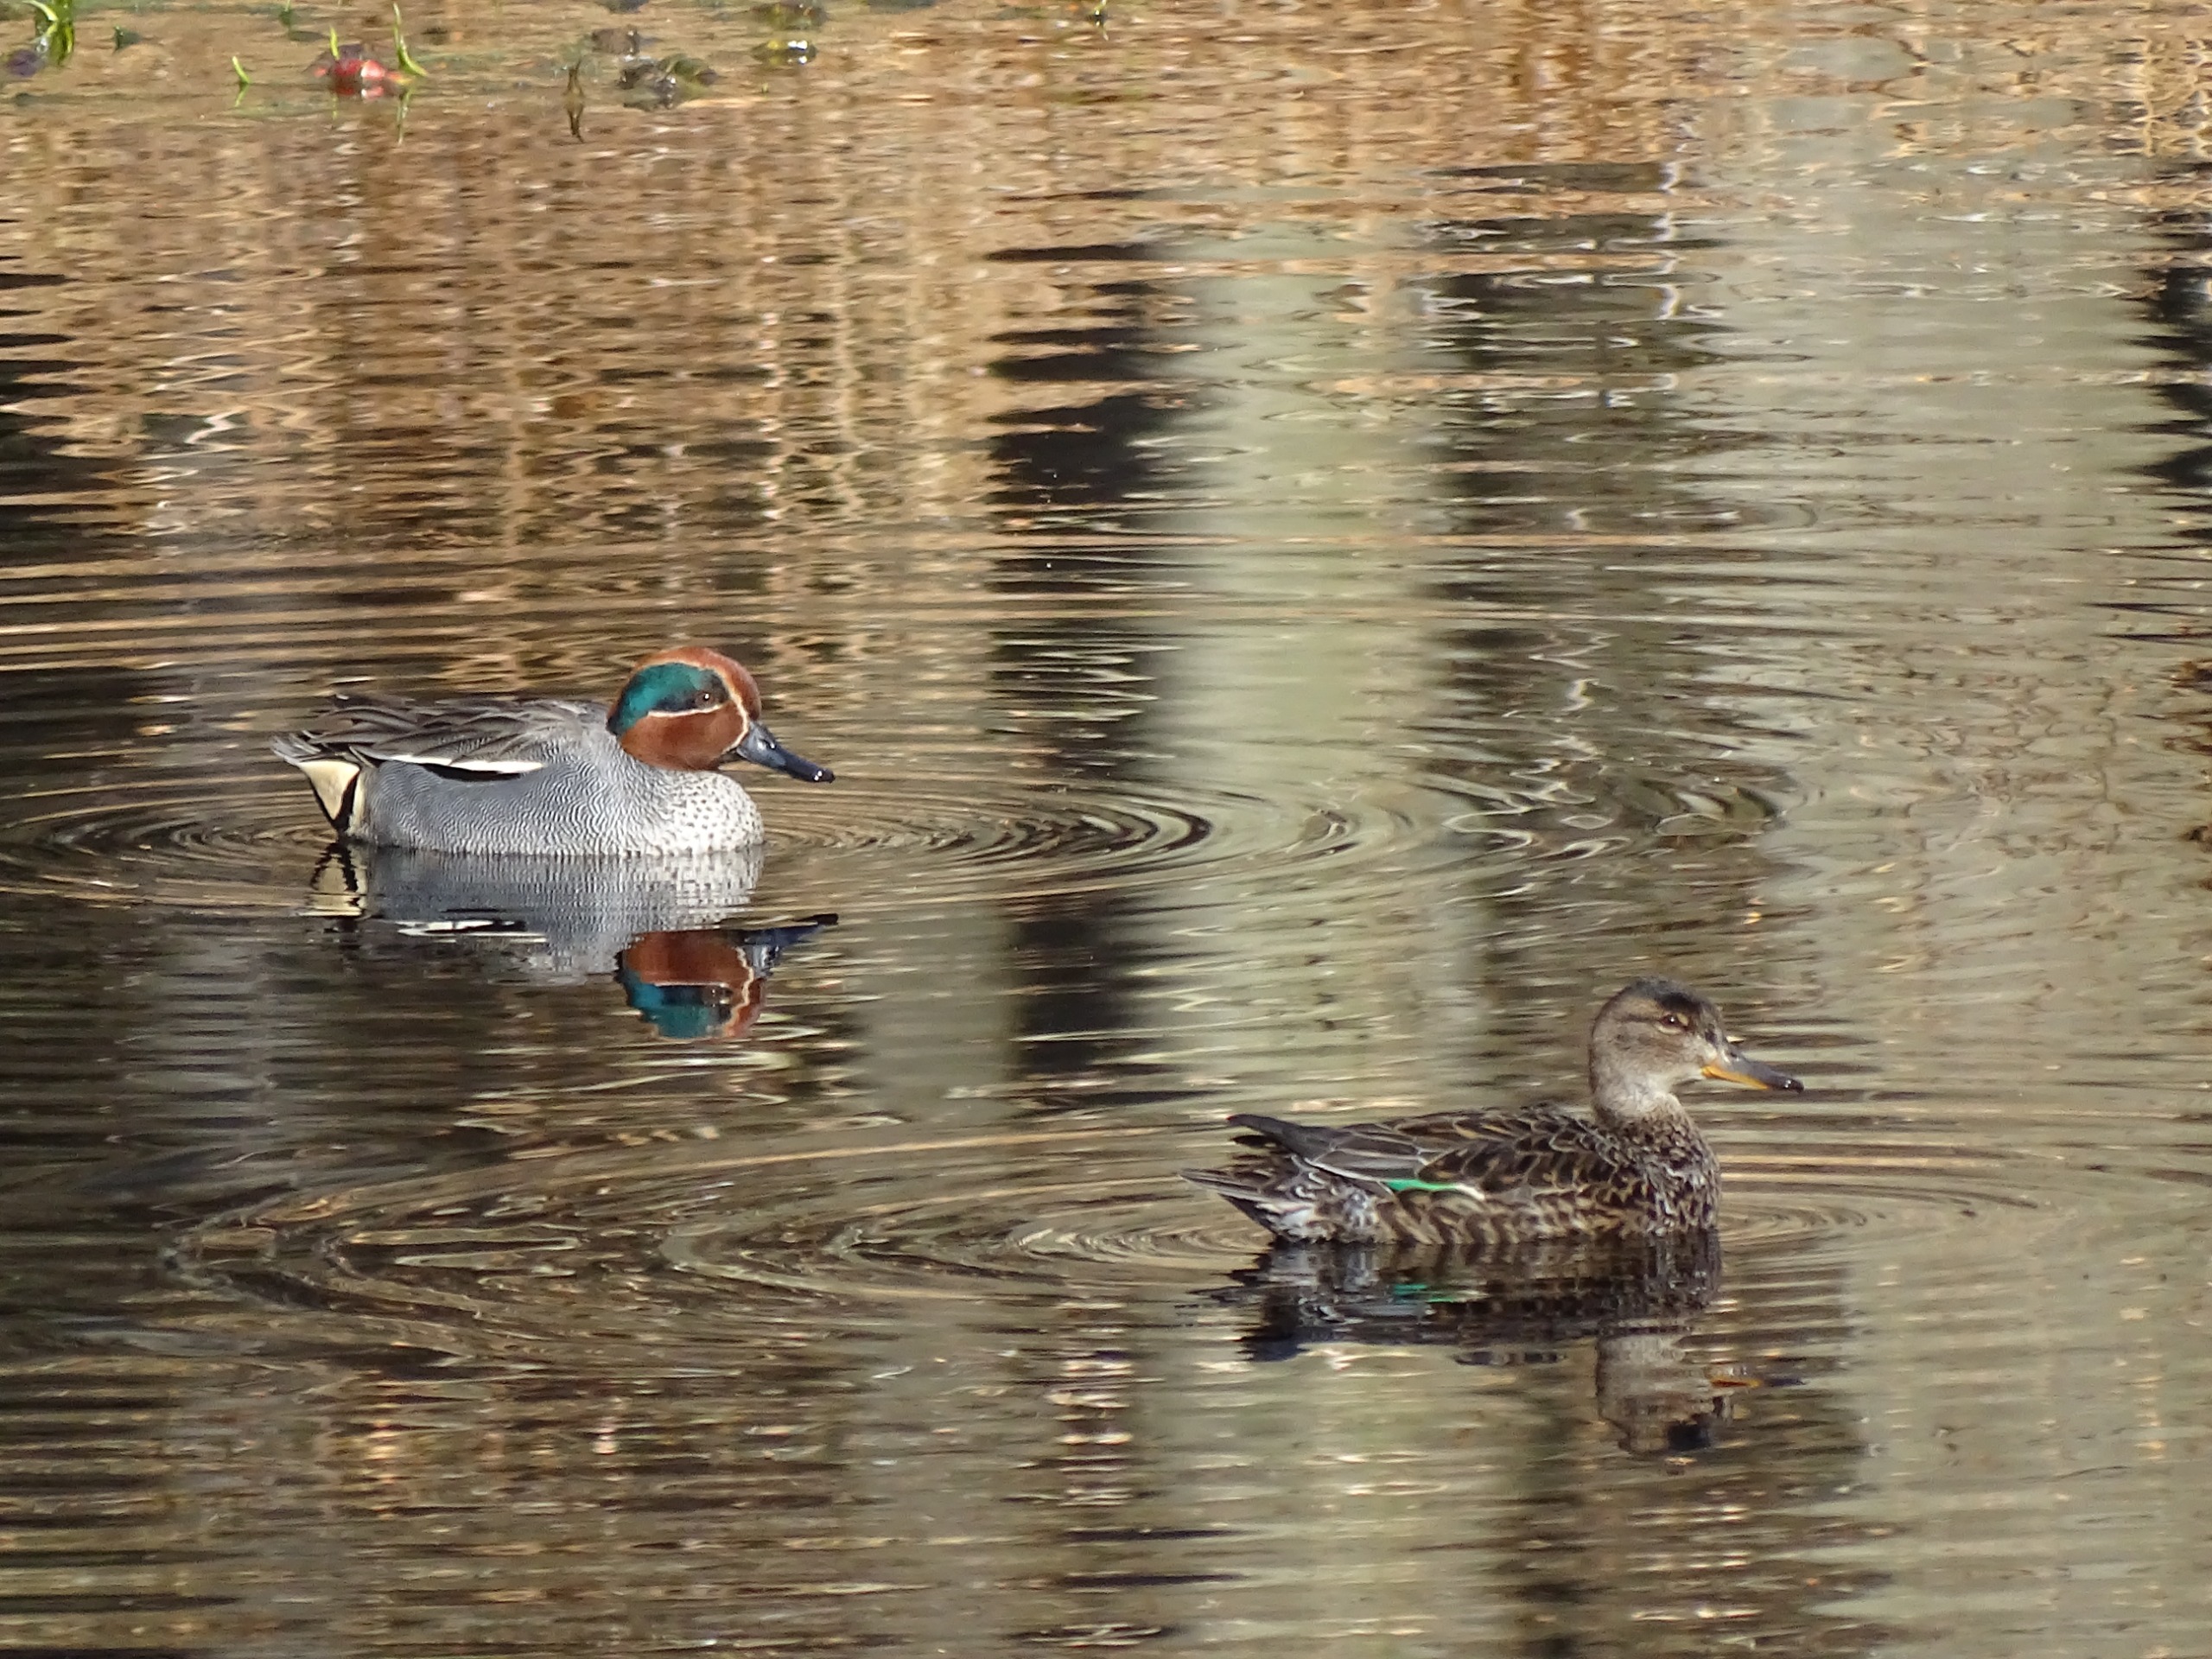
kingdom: Animalia
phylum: Chordata
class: Aves
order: Anseriformes
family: Anatidae
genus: Anas
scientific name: Anas crecca
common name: Krikand
